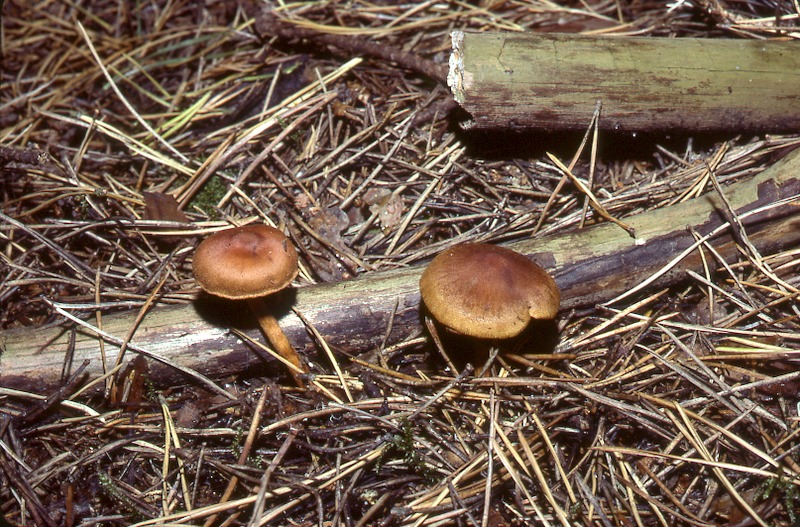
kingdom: Fungi
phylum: Basidiomycota
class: Agaricomycetes
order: Agaricales
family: Cortinariaceae
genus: Cortinarius
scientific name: Cortinarius cinnamomeus
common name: Cinnamon webcap
